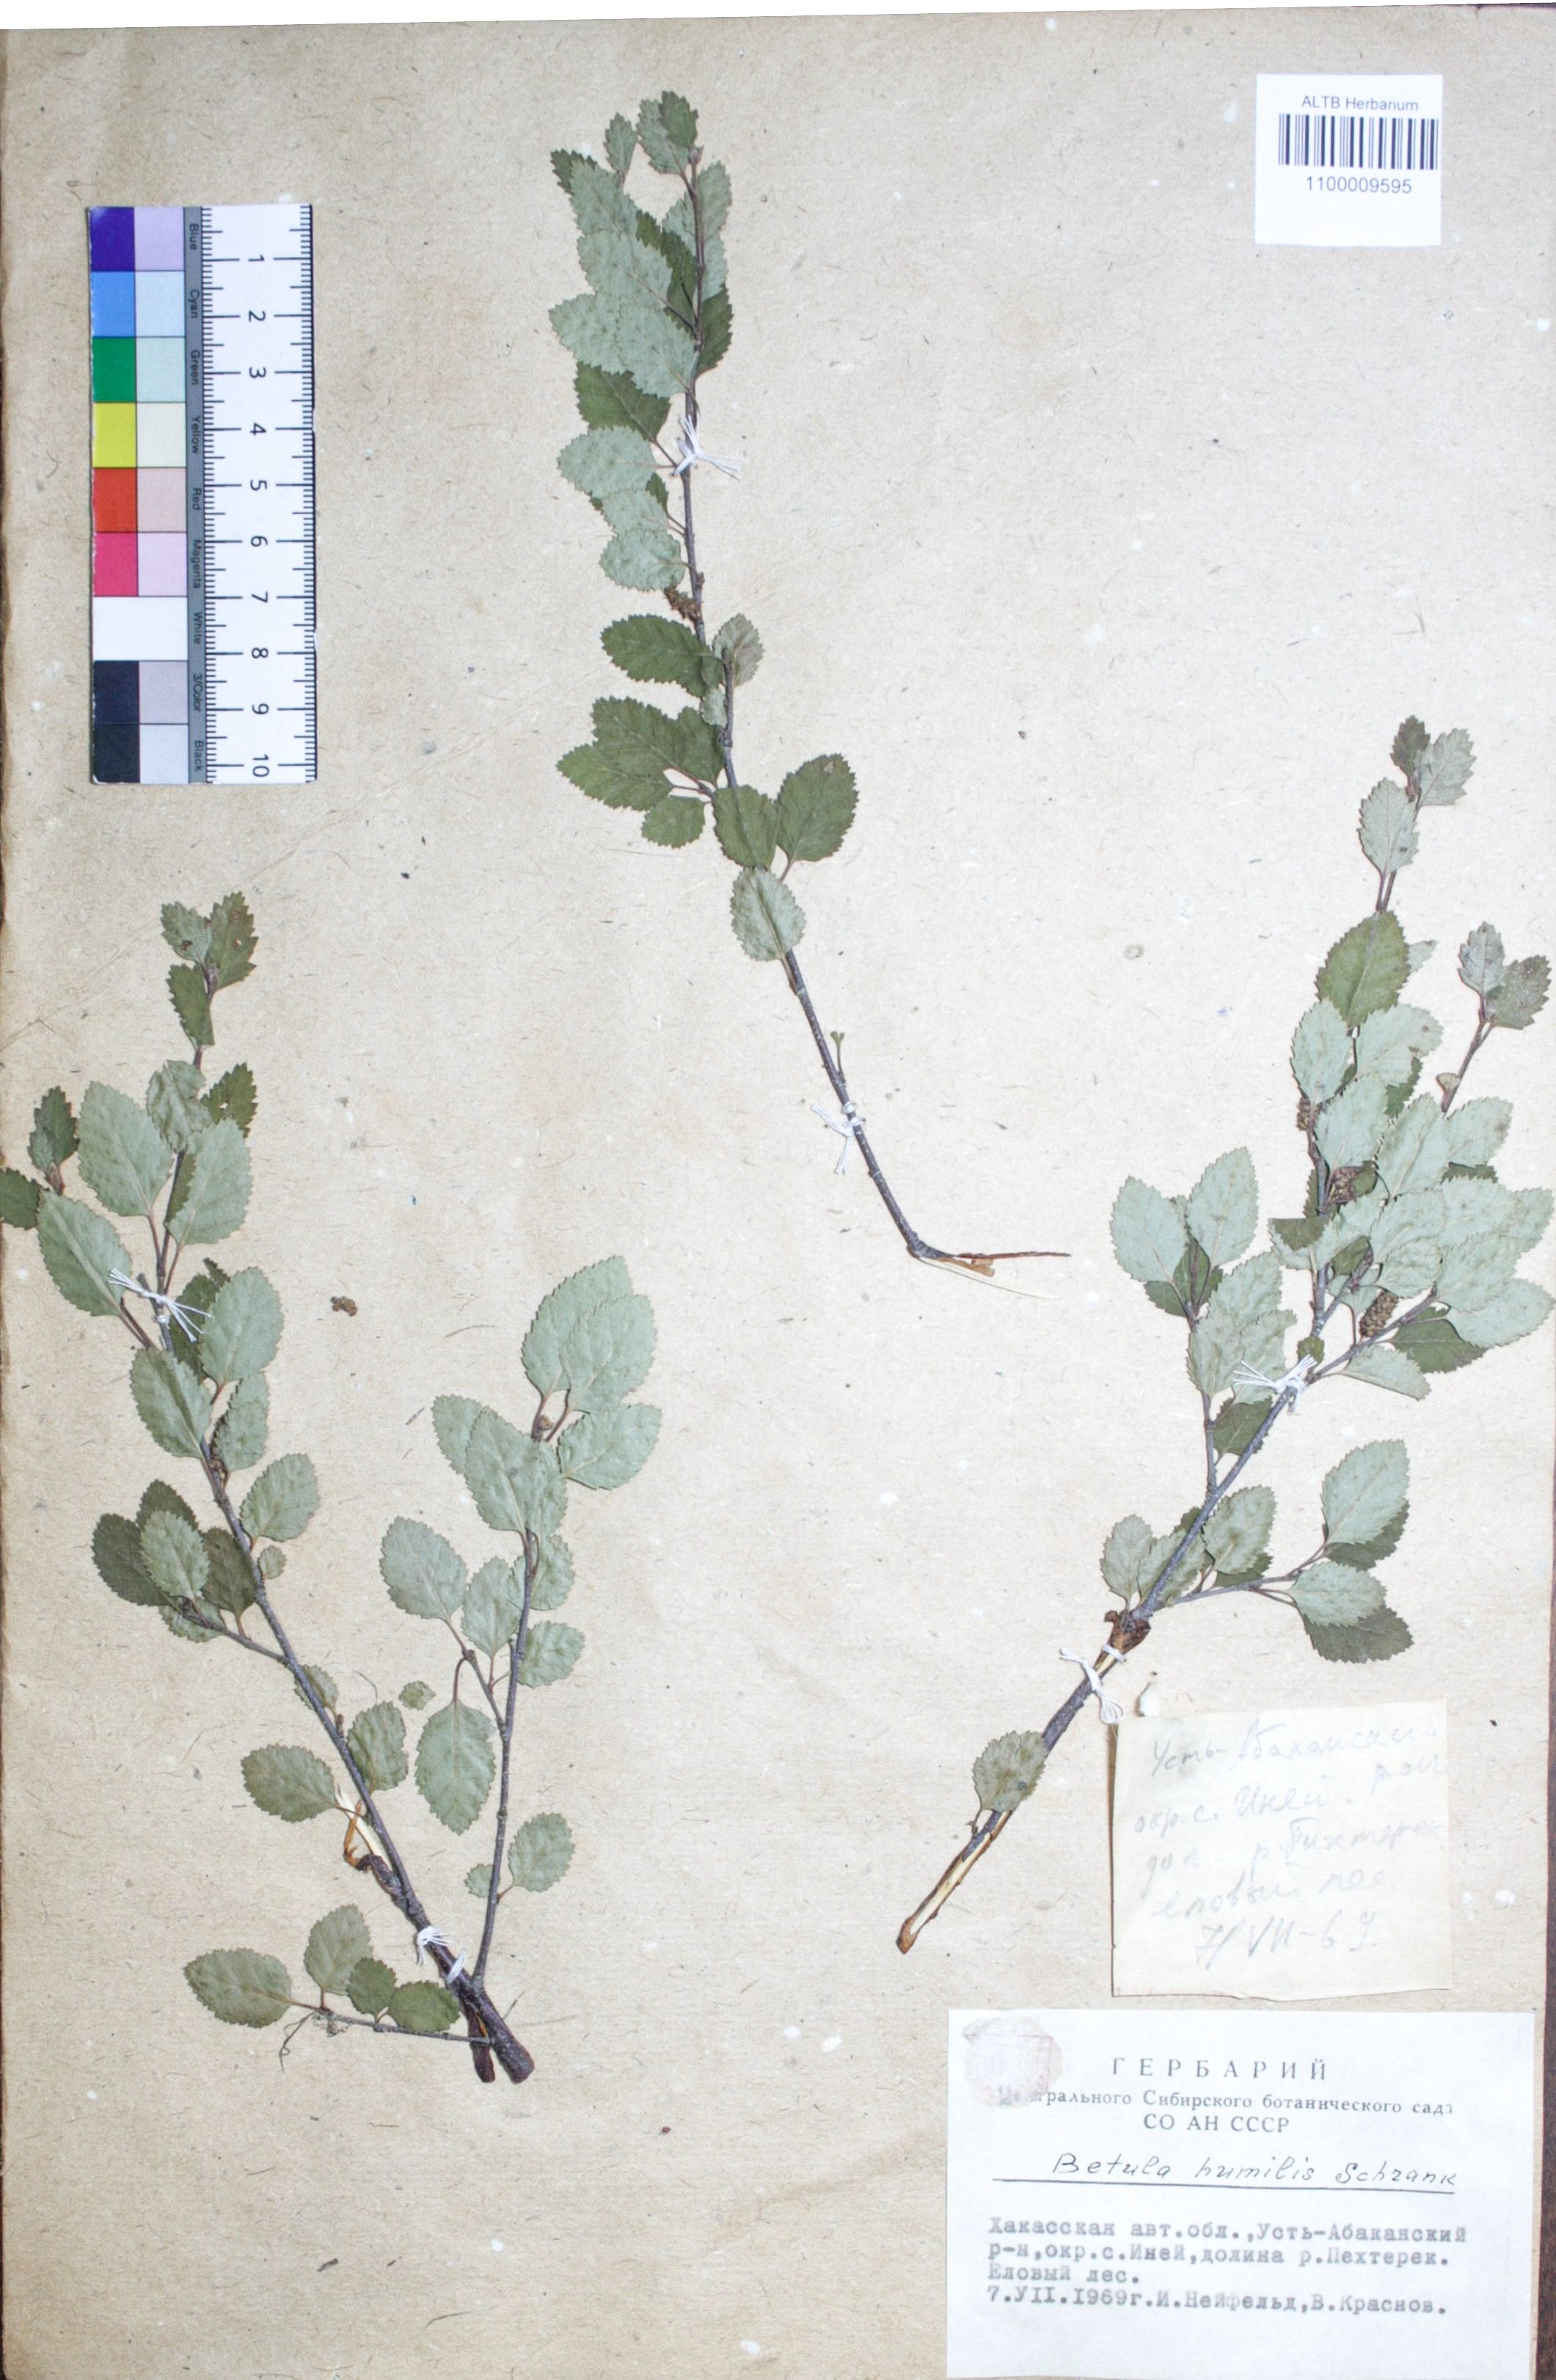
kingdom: Plantae
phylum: Tracheophyta
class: Magnoliopsida
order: Fagales
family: Betulaceae
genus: Betula
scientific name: Betula humilis
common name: Shrubby birch
